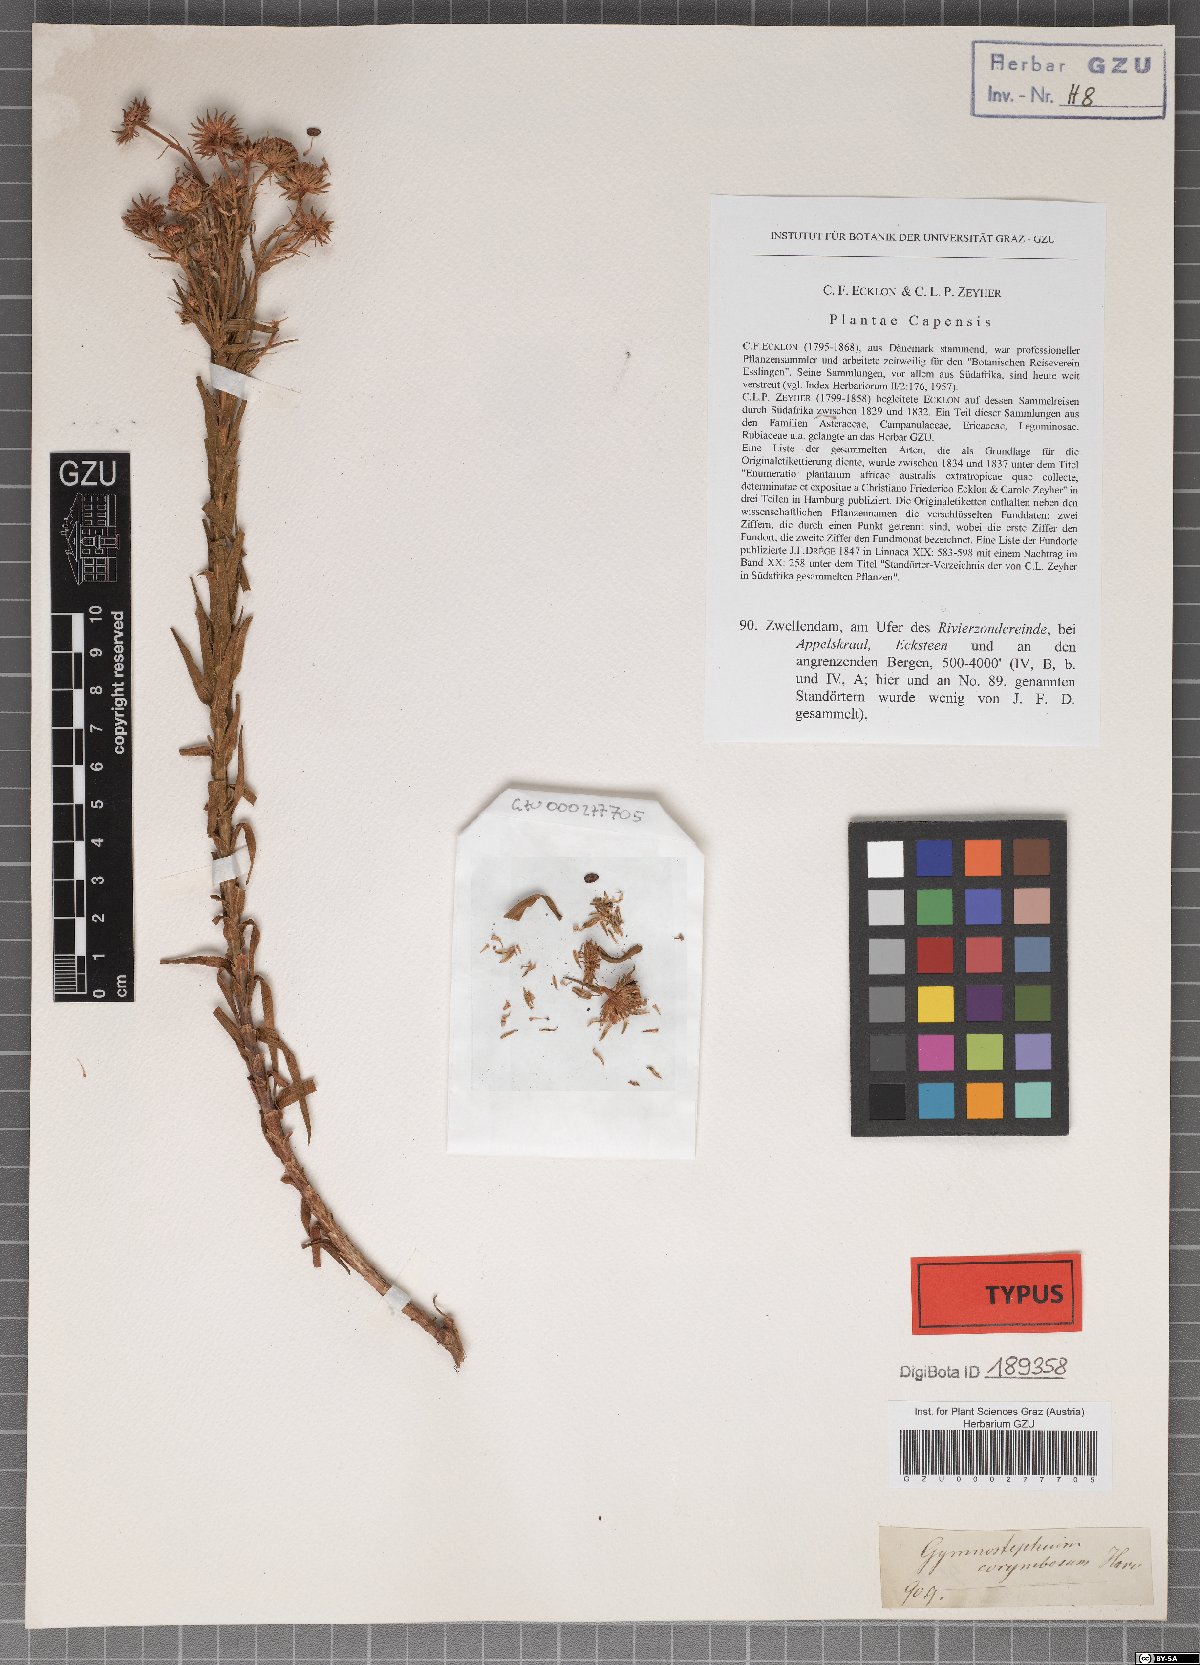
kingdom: Plantae
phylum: Tracheophyta
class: Magnoliopsida
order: Asterales
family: Asteraceae
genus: Zyrphelis
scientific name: Zyrphelis nervosa
